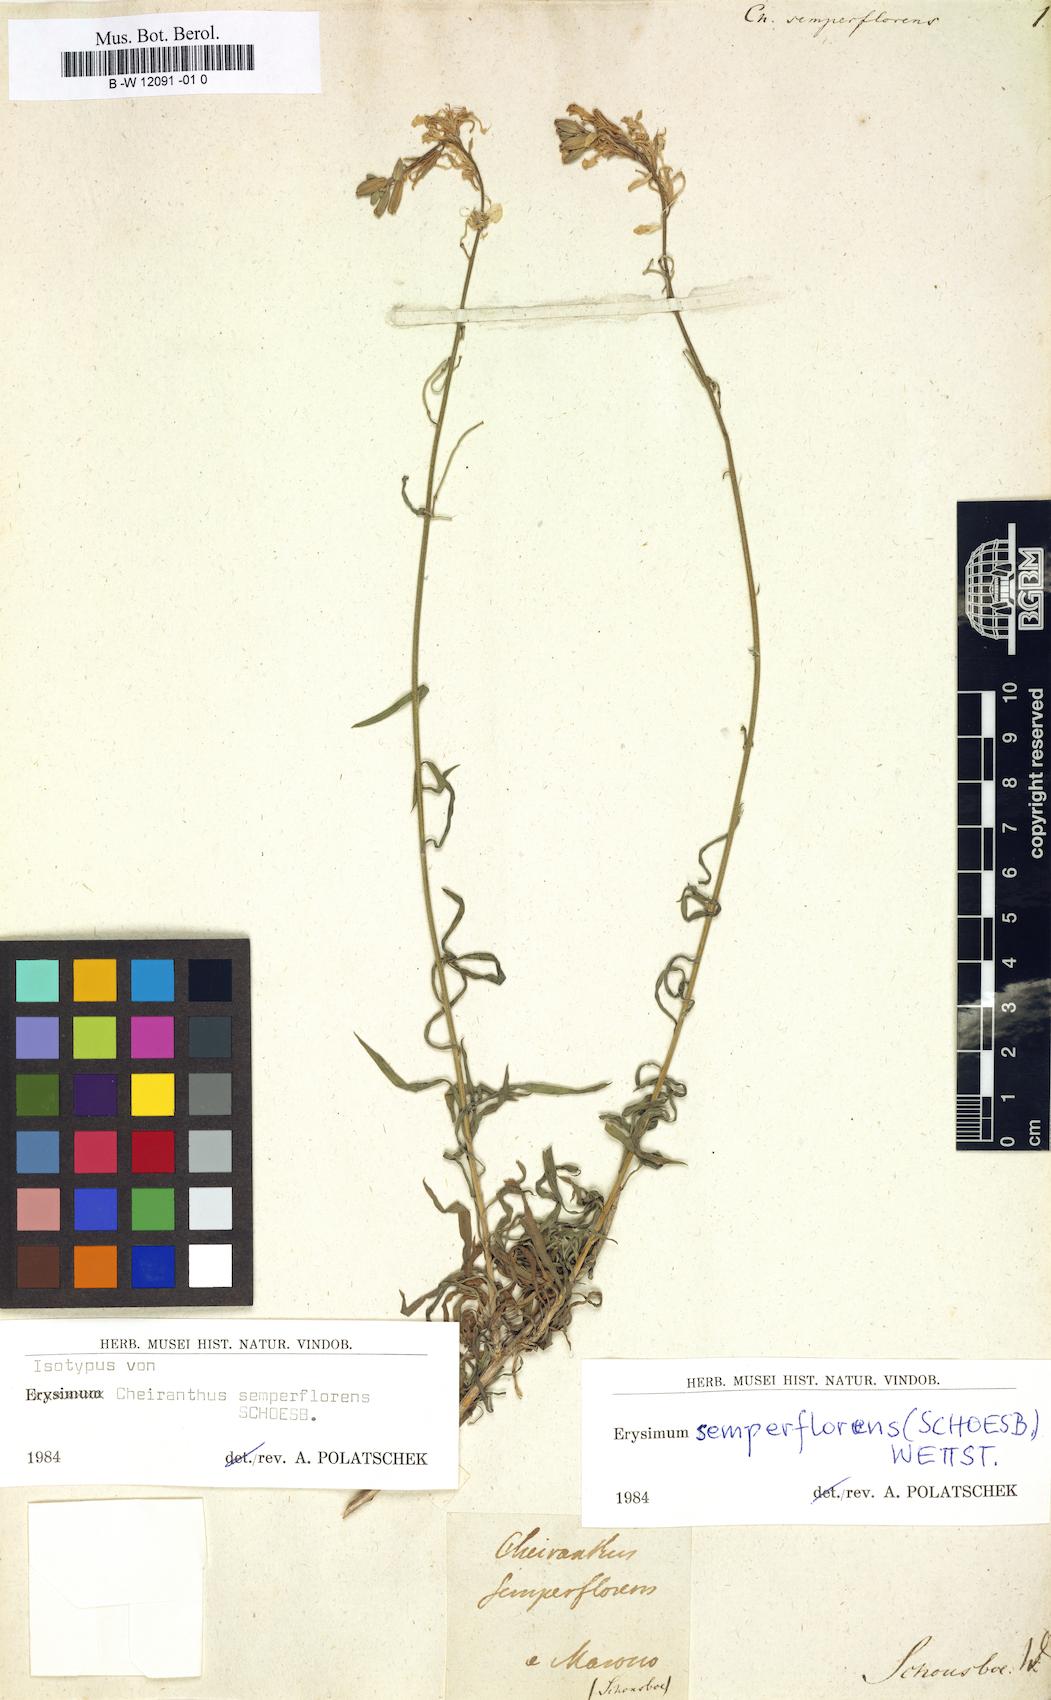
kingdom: Plantae
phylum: Tracheophyta
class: Magnoliopsida
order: Brassicales
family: Brassicaceae
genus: Erysimum
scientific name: Erysimum
